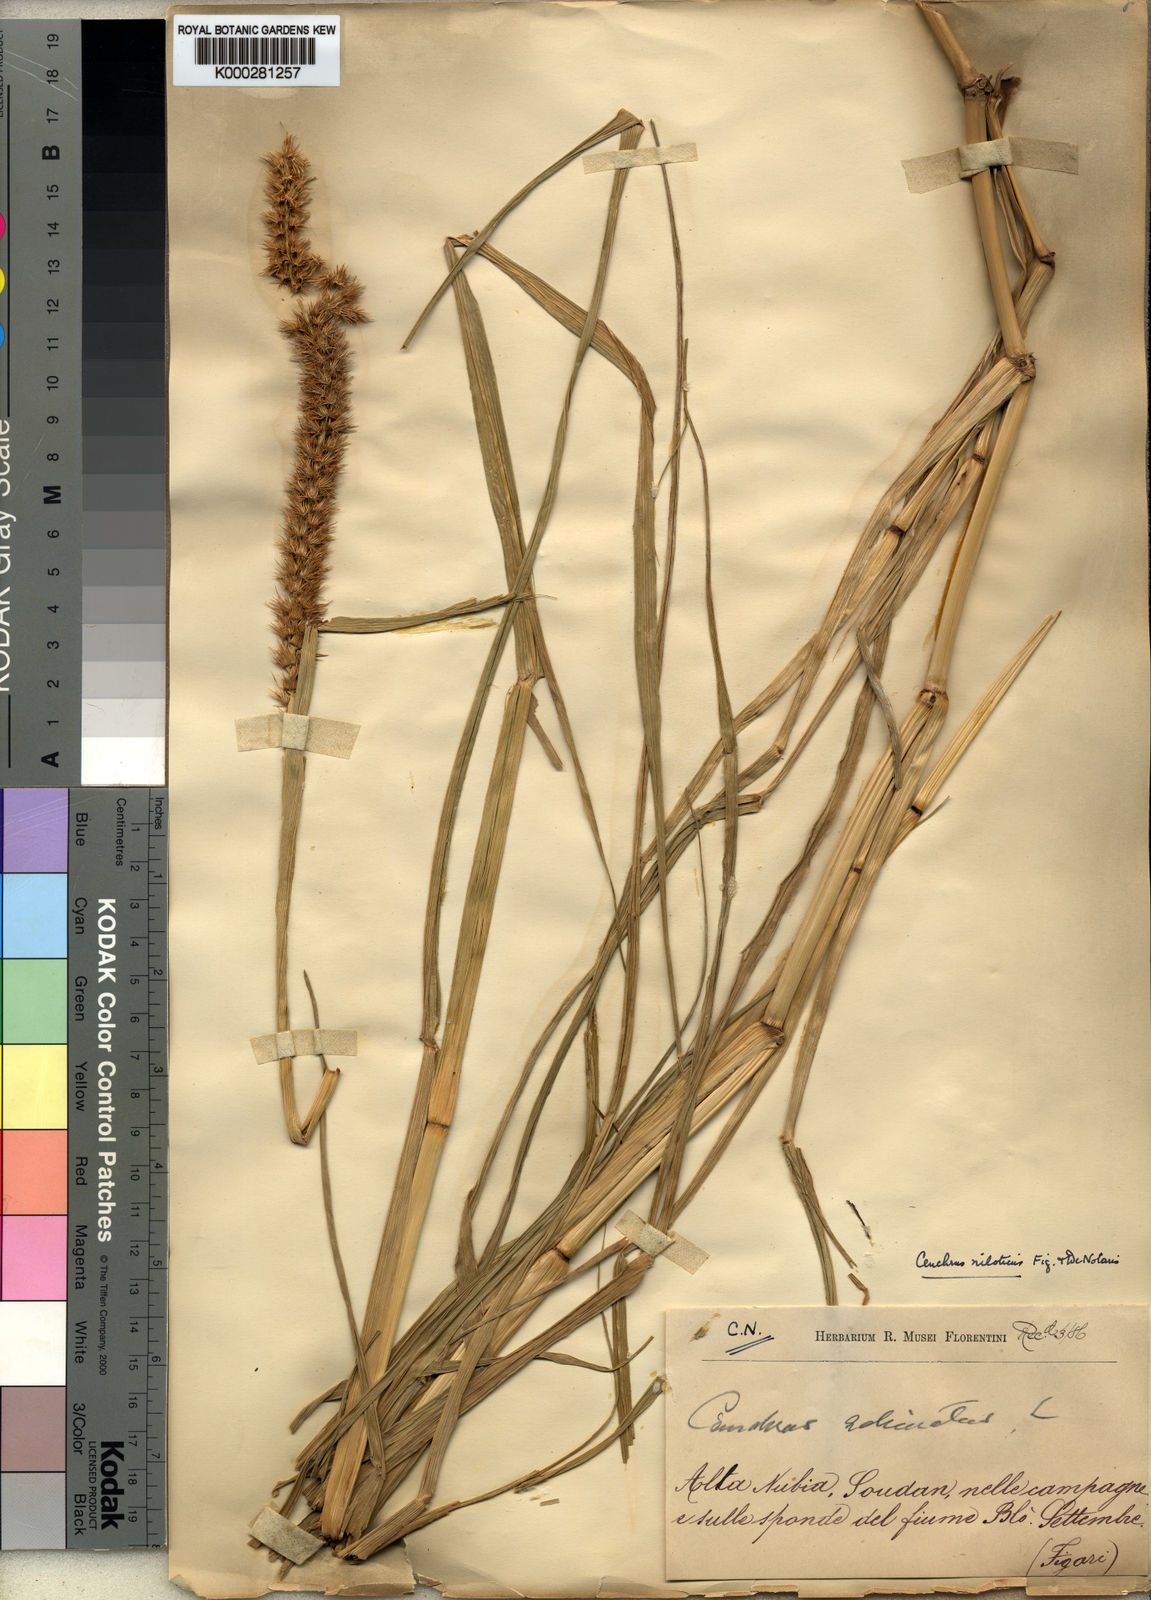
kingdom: Plantae
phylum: Tracheophyta
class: Liliopsida
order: Poales
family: Poaceae
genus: Cenchrus
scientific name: Cenchrus biflorus
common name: Indian sandbur
